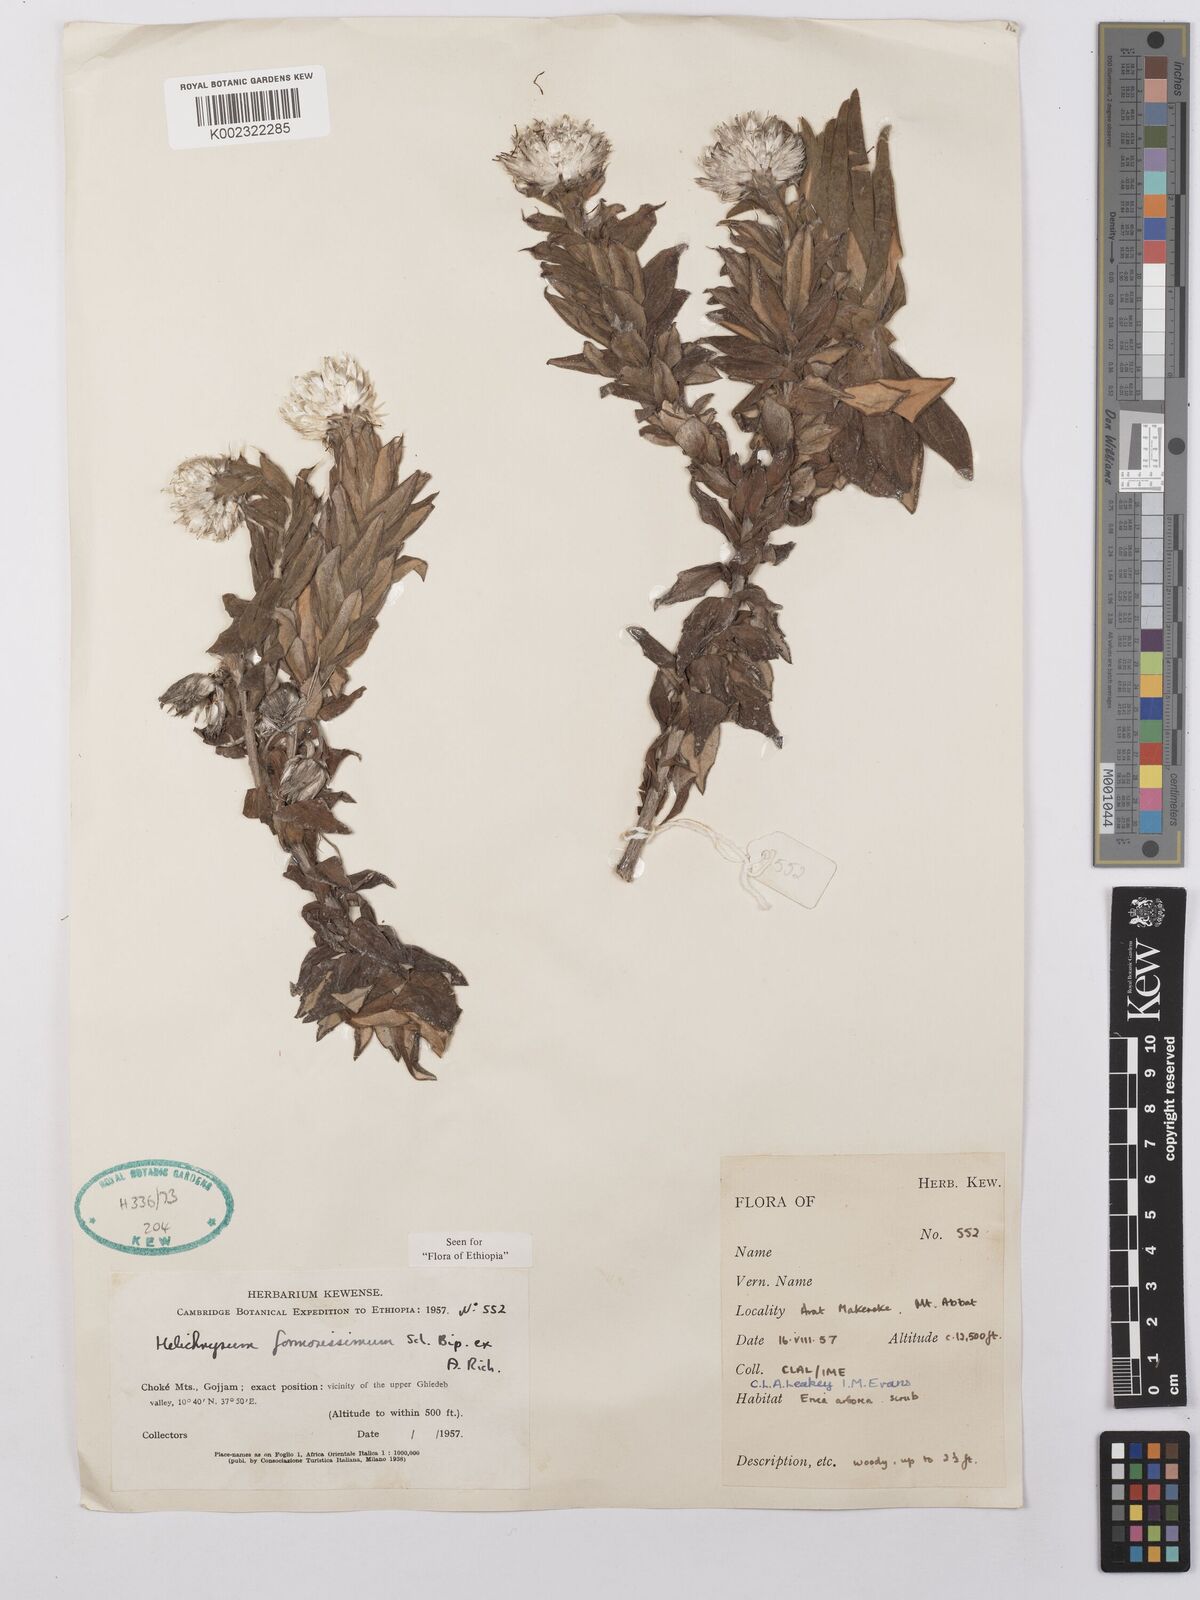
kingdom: Plantae
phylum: Tracheophyta
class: Magnoliopsida
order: Asterales
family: Asteraceae
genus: Helichrysum
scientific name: Helichrysum formosissimum
